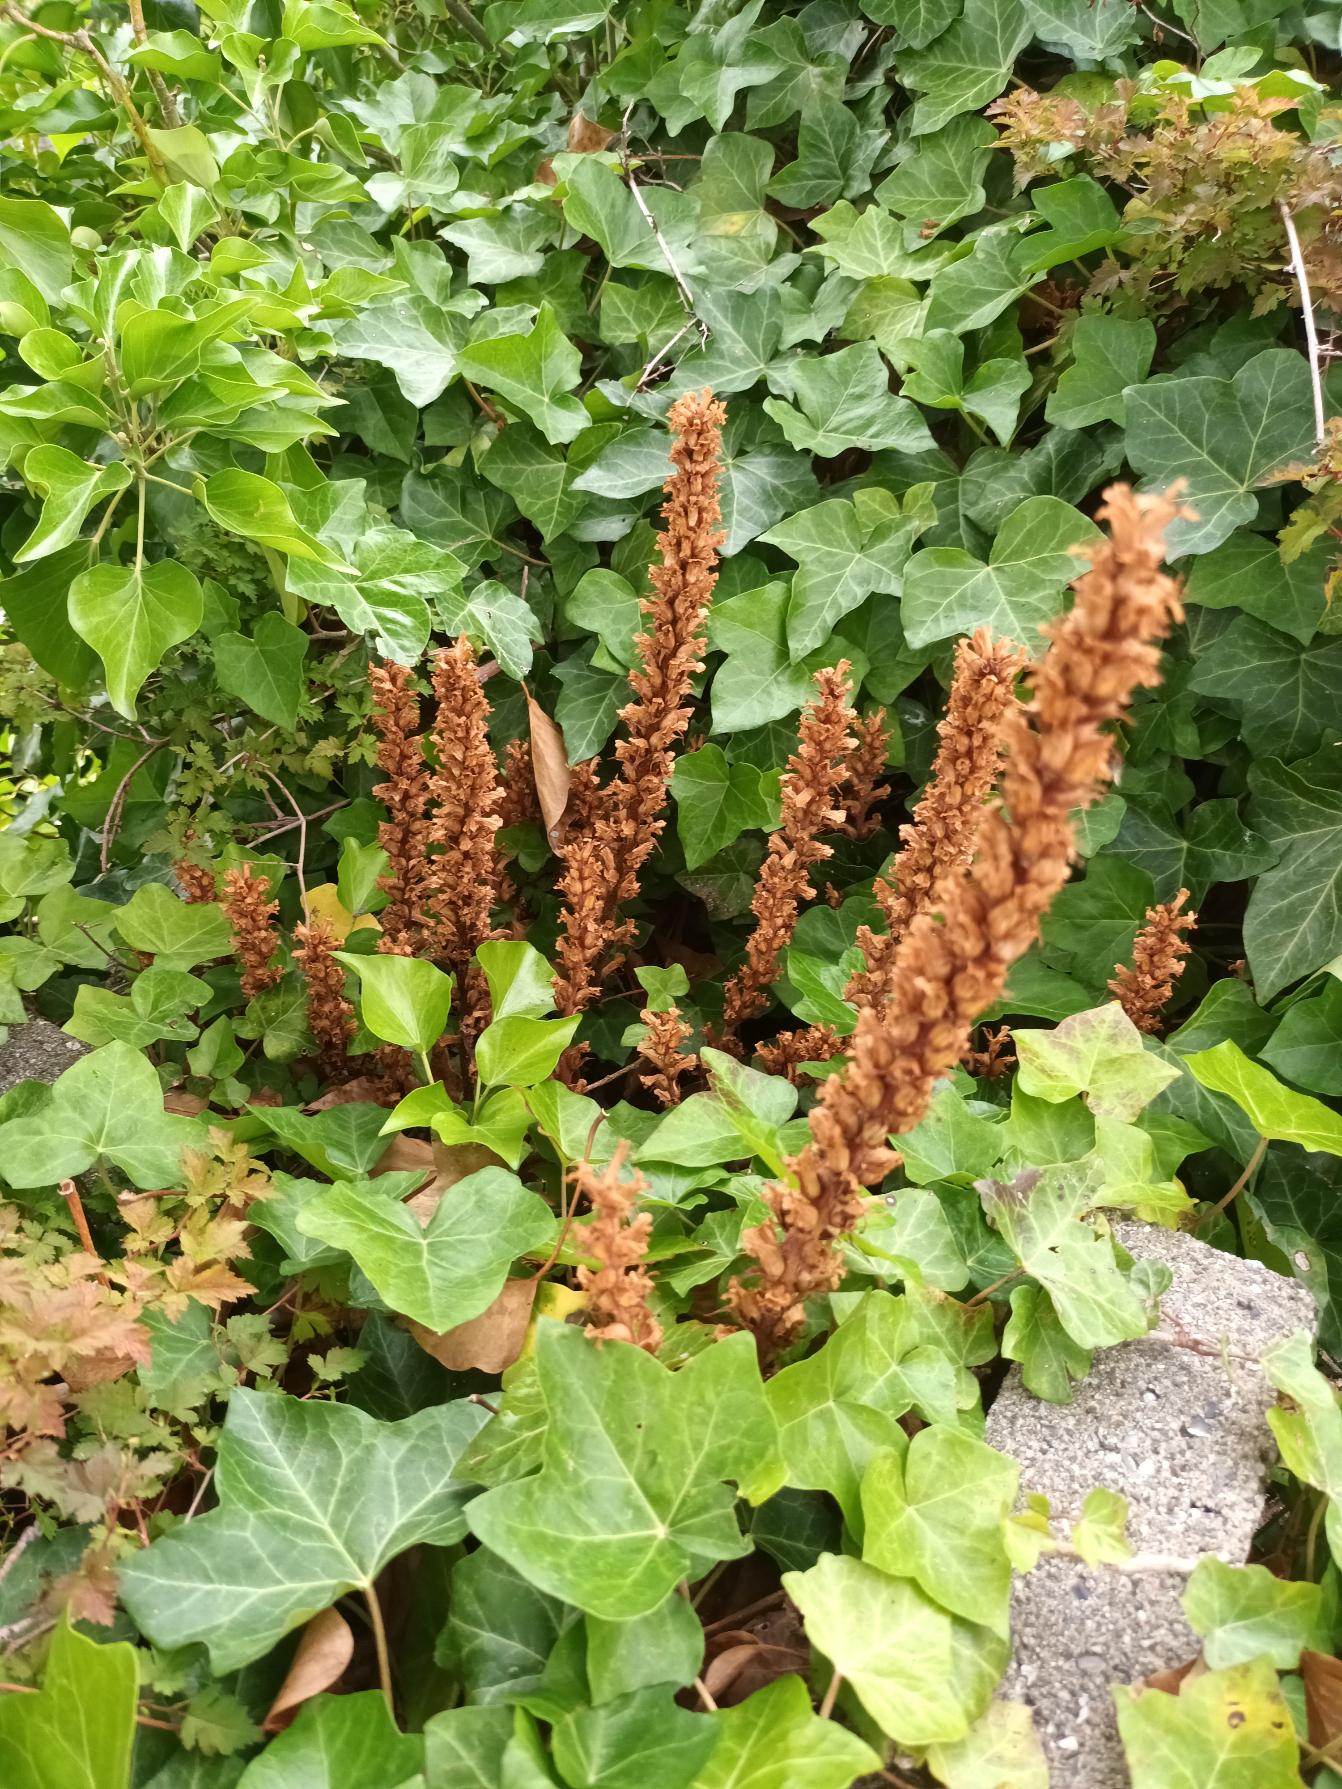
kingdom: Plantae
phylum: Tracheophyta
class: Magnoliopsida
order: Lamiales
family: Orobanchaceae
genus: Orobanche
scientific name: Orobanche hederae
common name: Vedbend-gyvelkvæler
